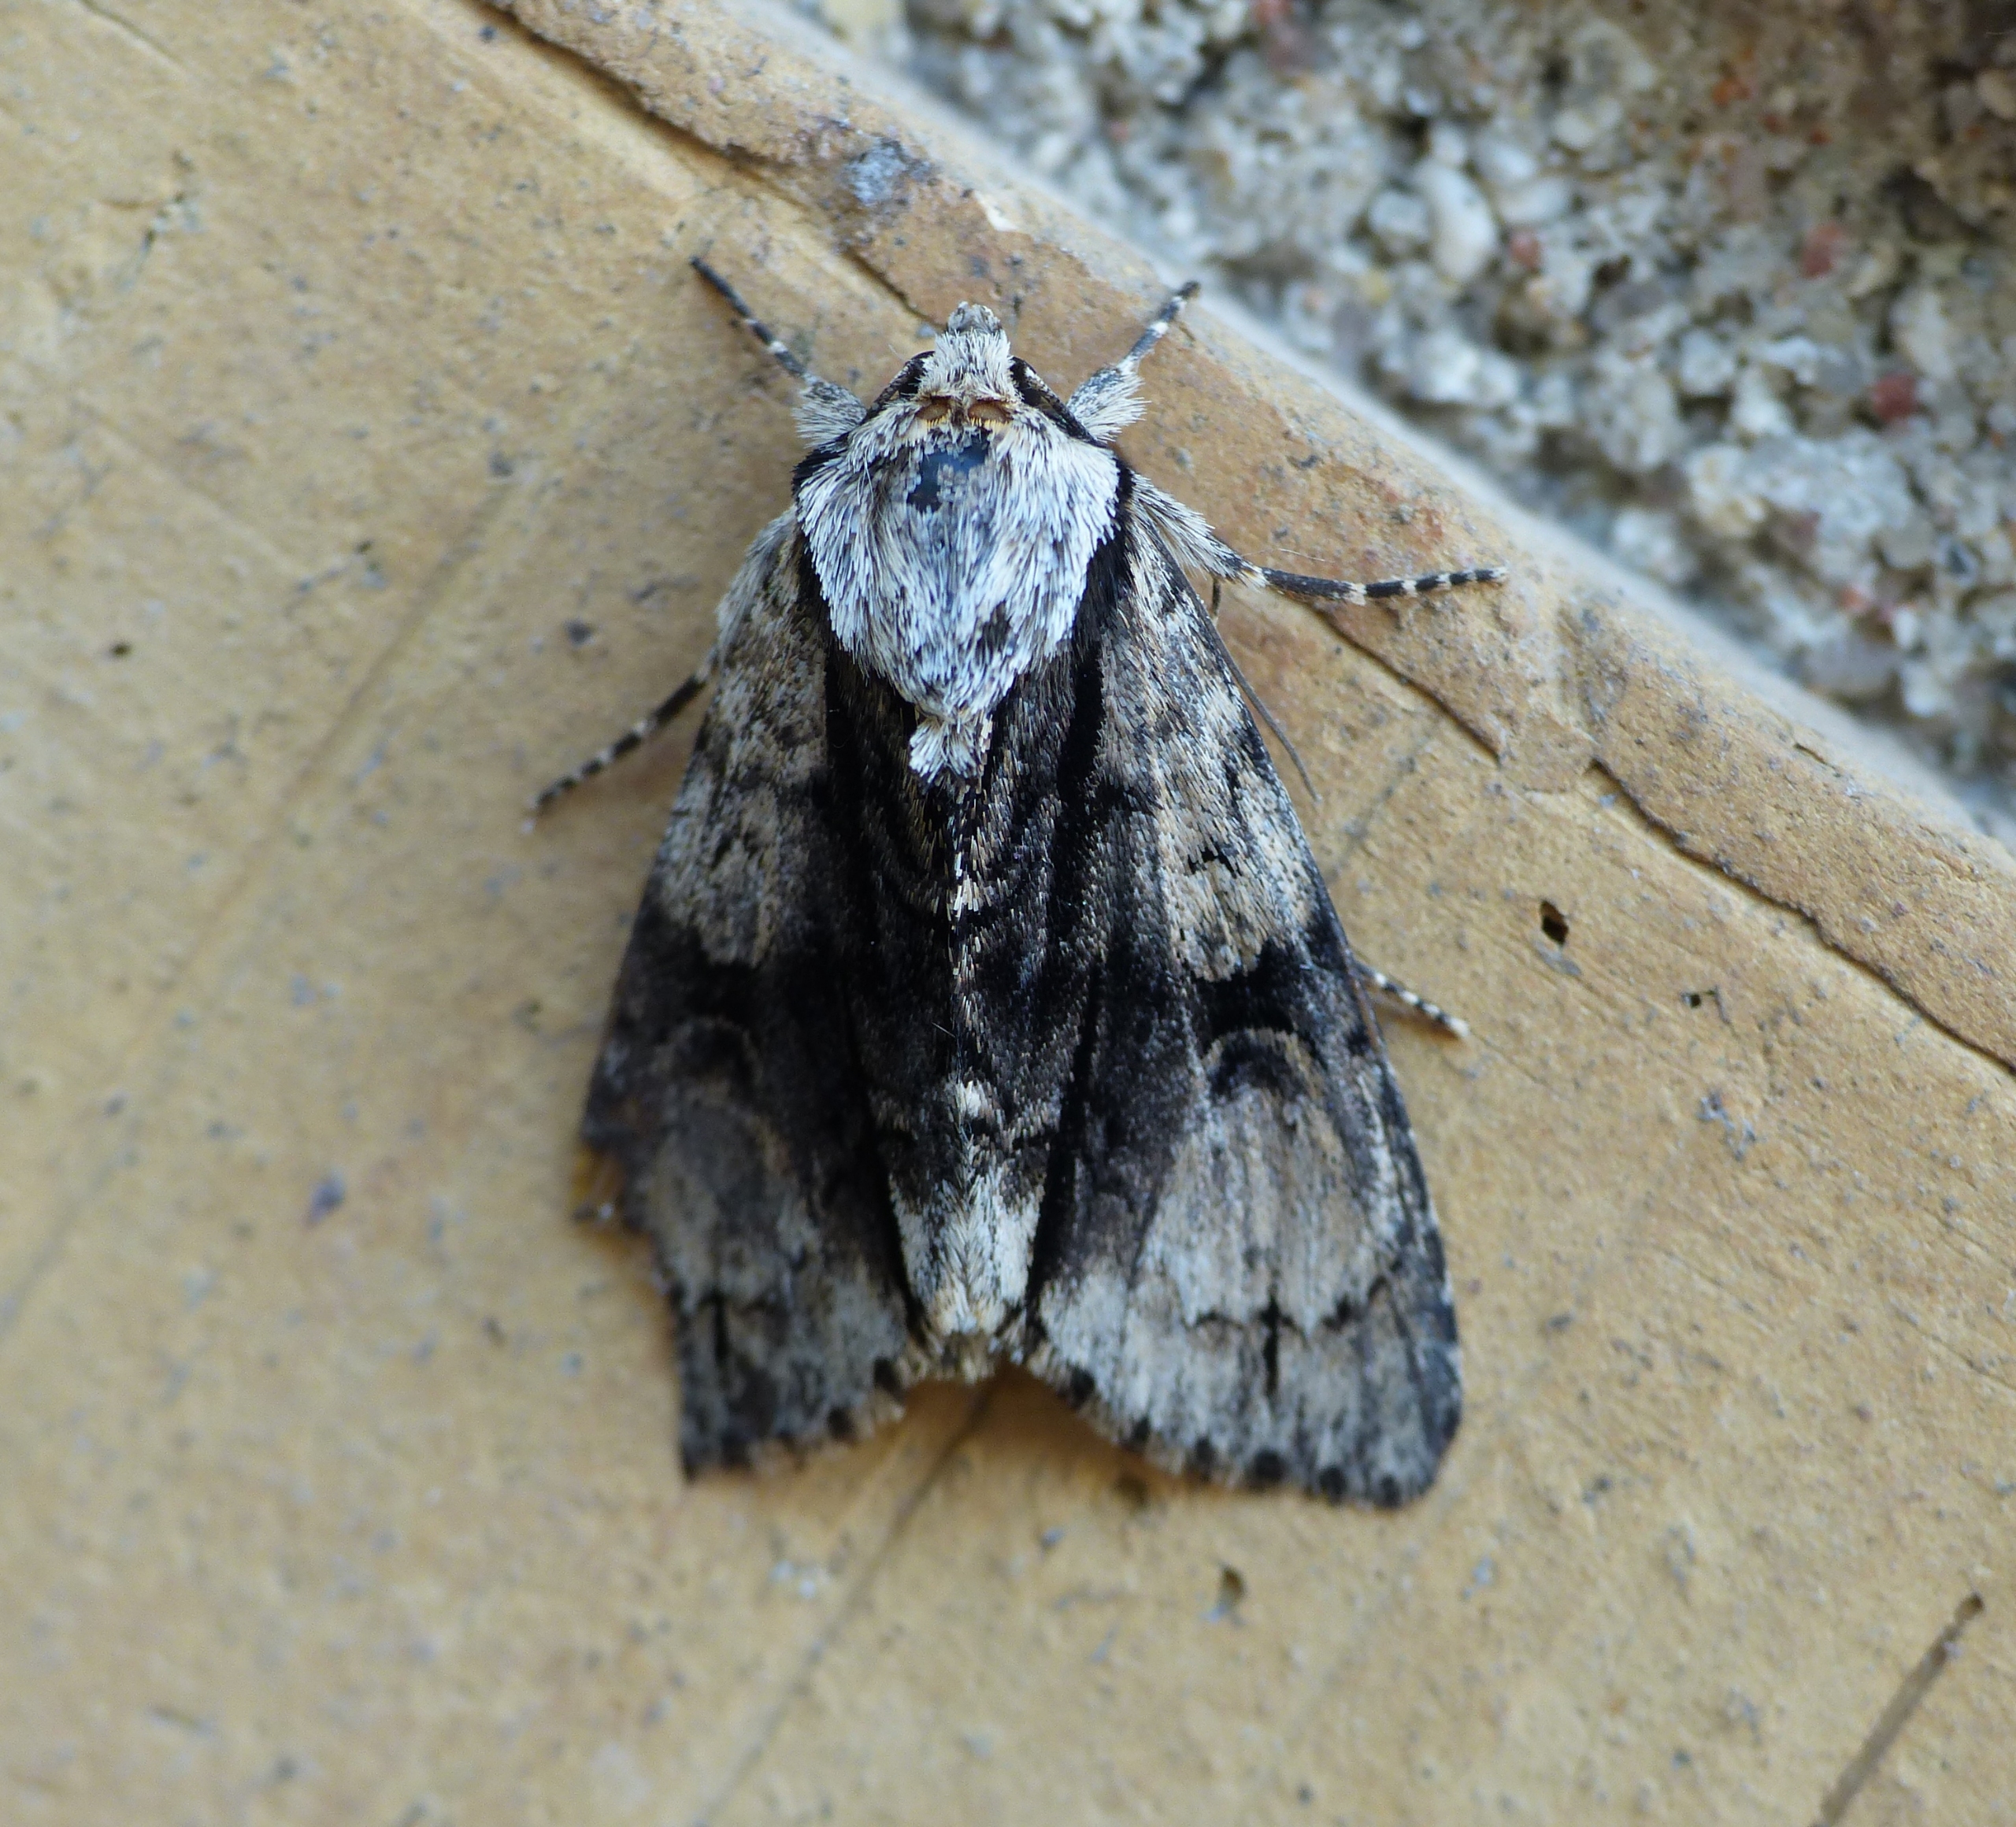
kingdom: Animalia
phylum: Arthropoda
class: Insecta
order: Lepidoptera
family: Noctuidae
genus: Acronicta
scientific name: Acronicta alni
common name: Kølleugle
